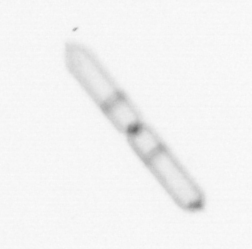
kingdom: Chromista
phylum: Ochrophyta
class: Bacillariophyceae
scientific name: Bacillariophyceae
